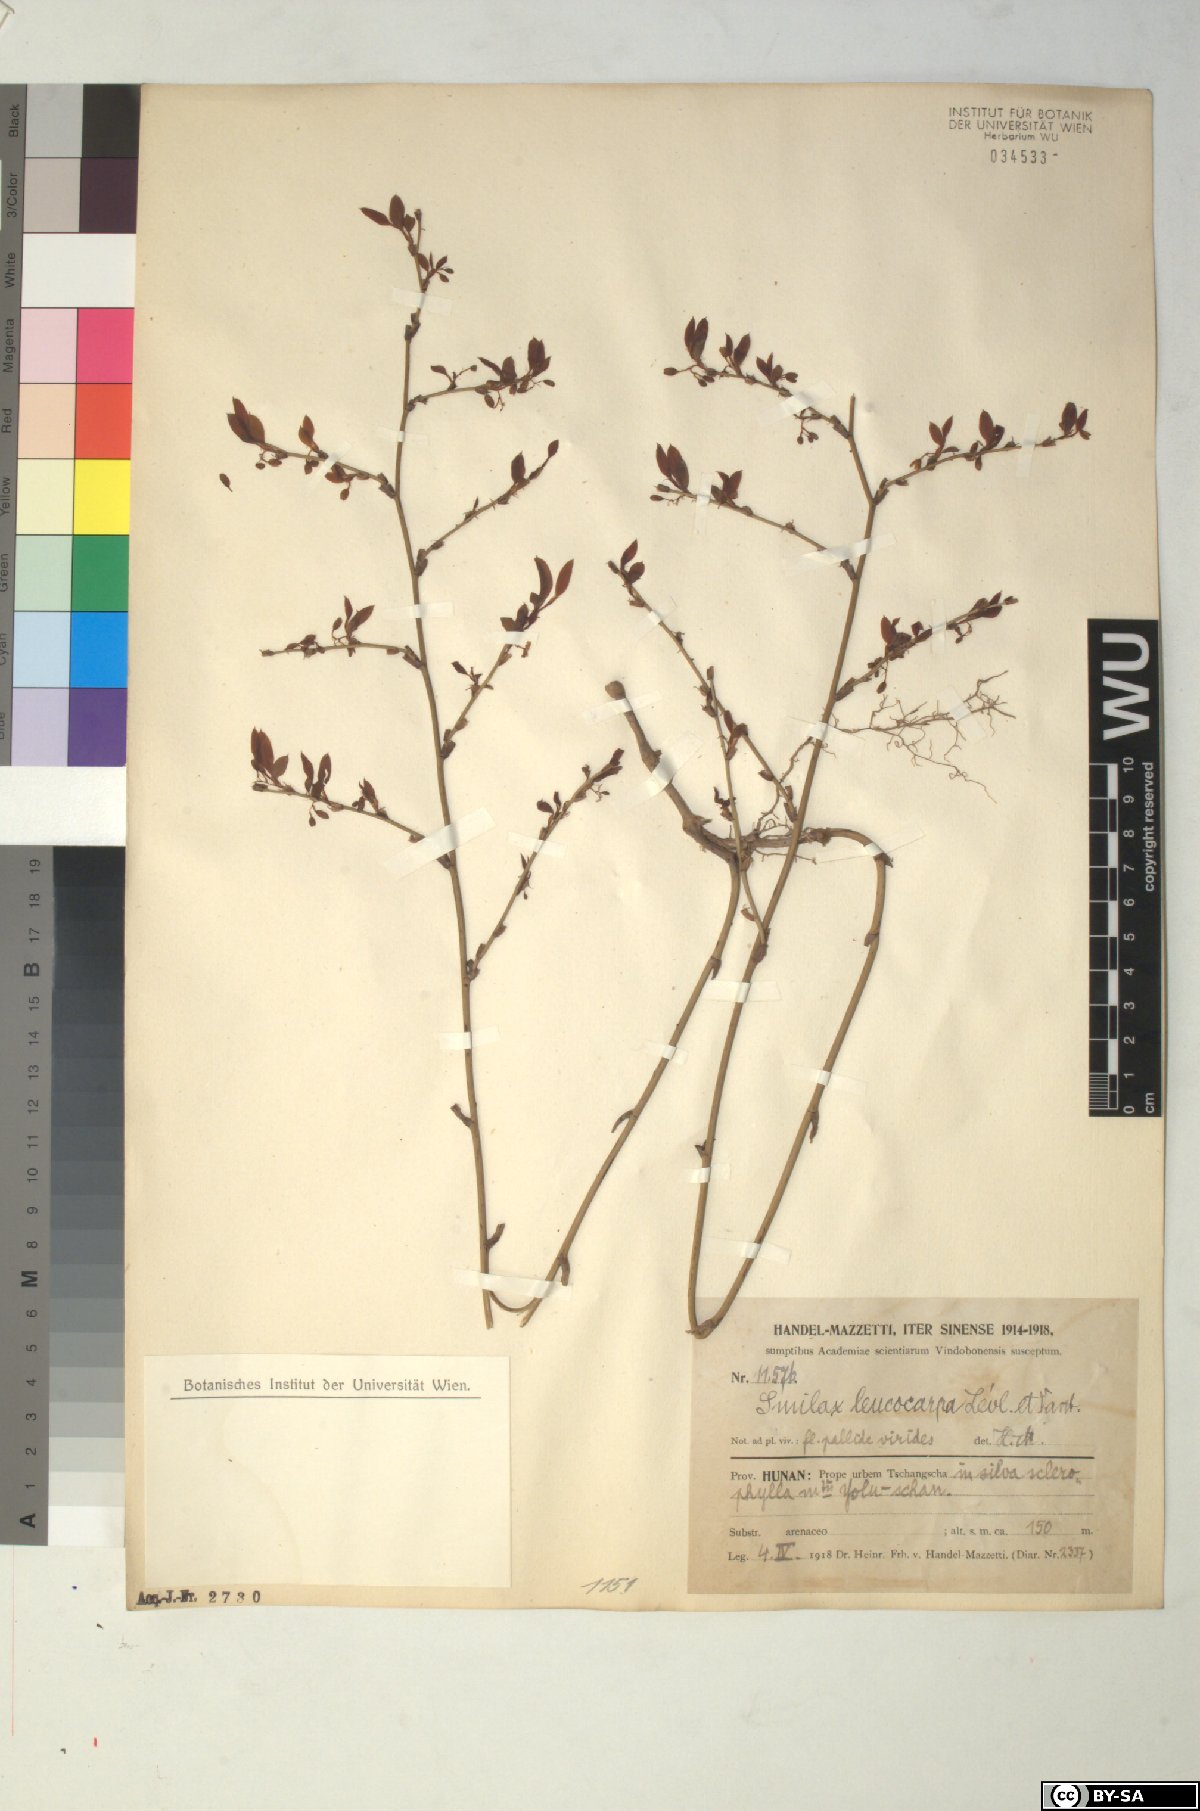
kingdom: Plantae
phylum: Tracheophyta
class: Liliopsida
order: Liliales
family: Smilacaceae
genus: Smilax
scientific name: Smilax trinervula
